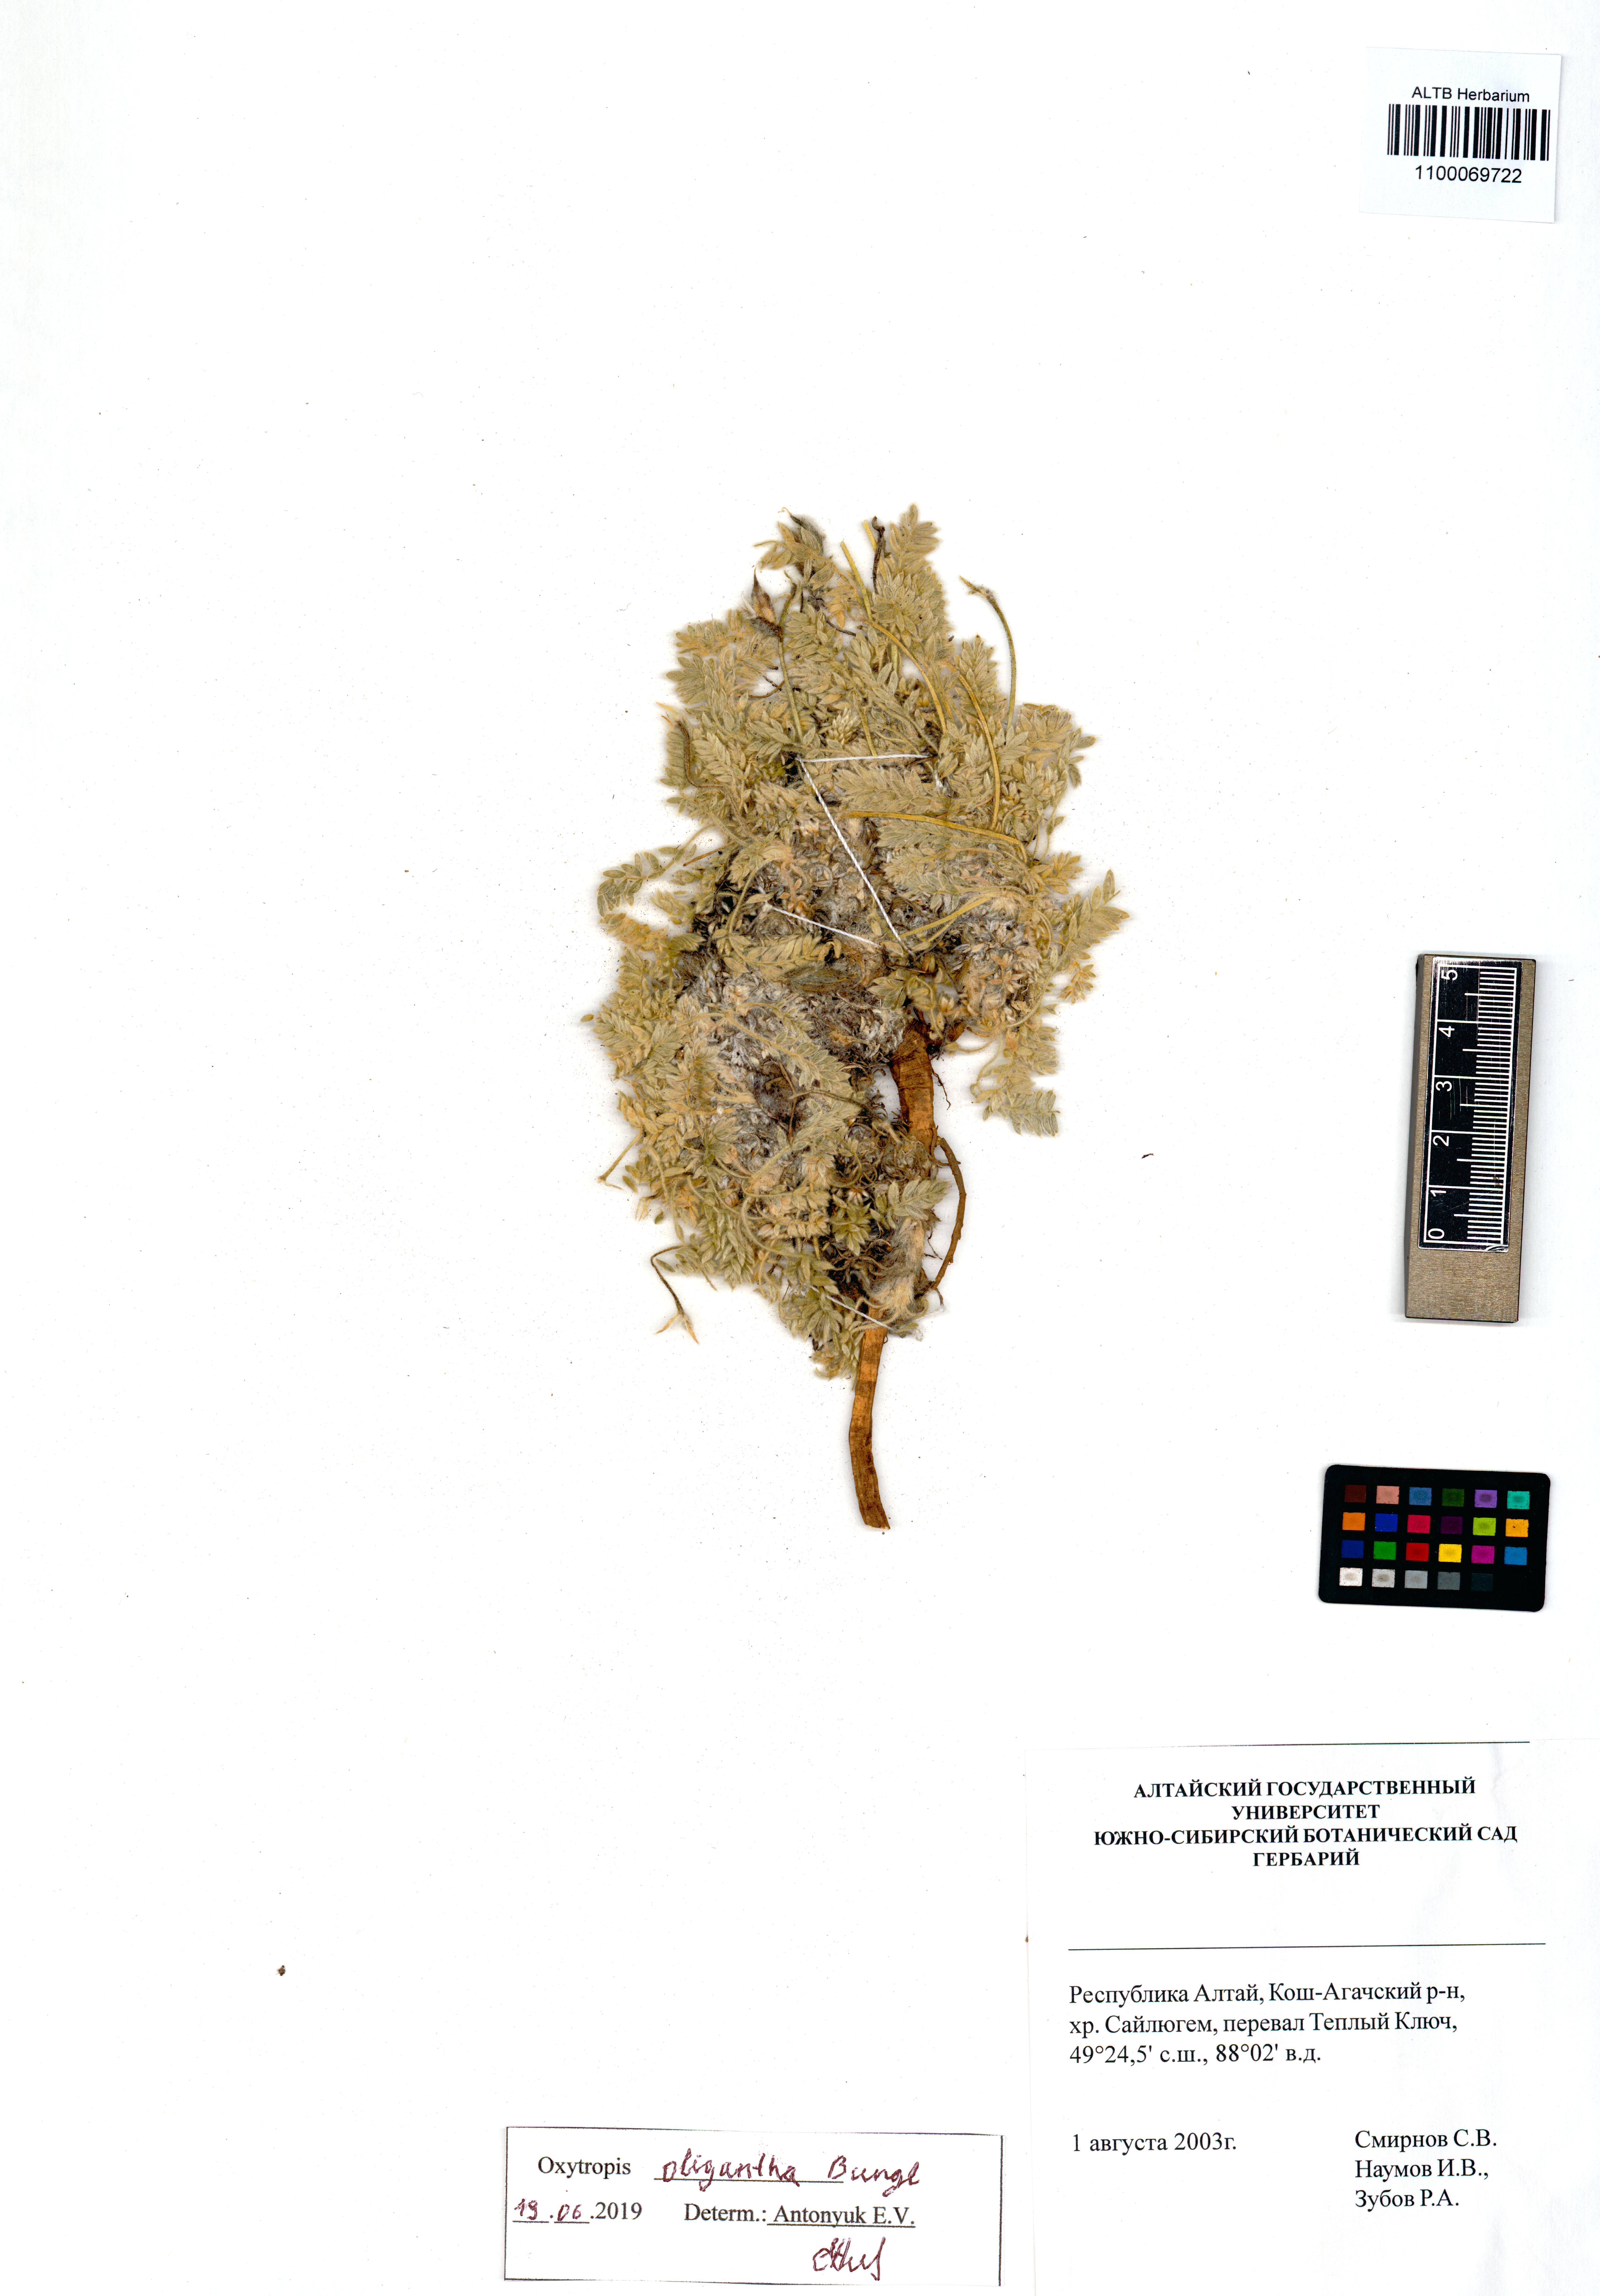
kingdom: Plantae
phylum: Tracheophyta
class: Magnoliopsida
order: Fabales
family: Fabaceae
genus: Oxytropis
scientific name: Oxytropis oligantha
